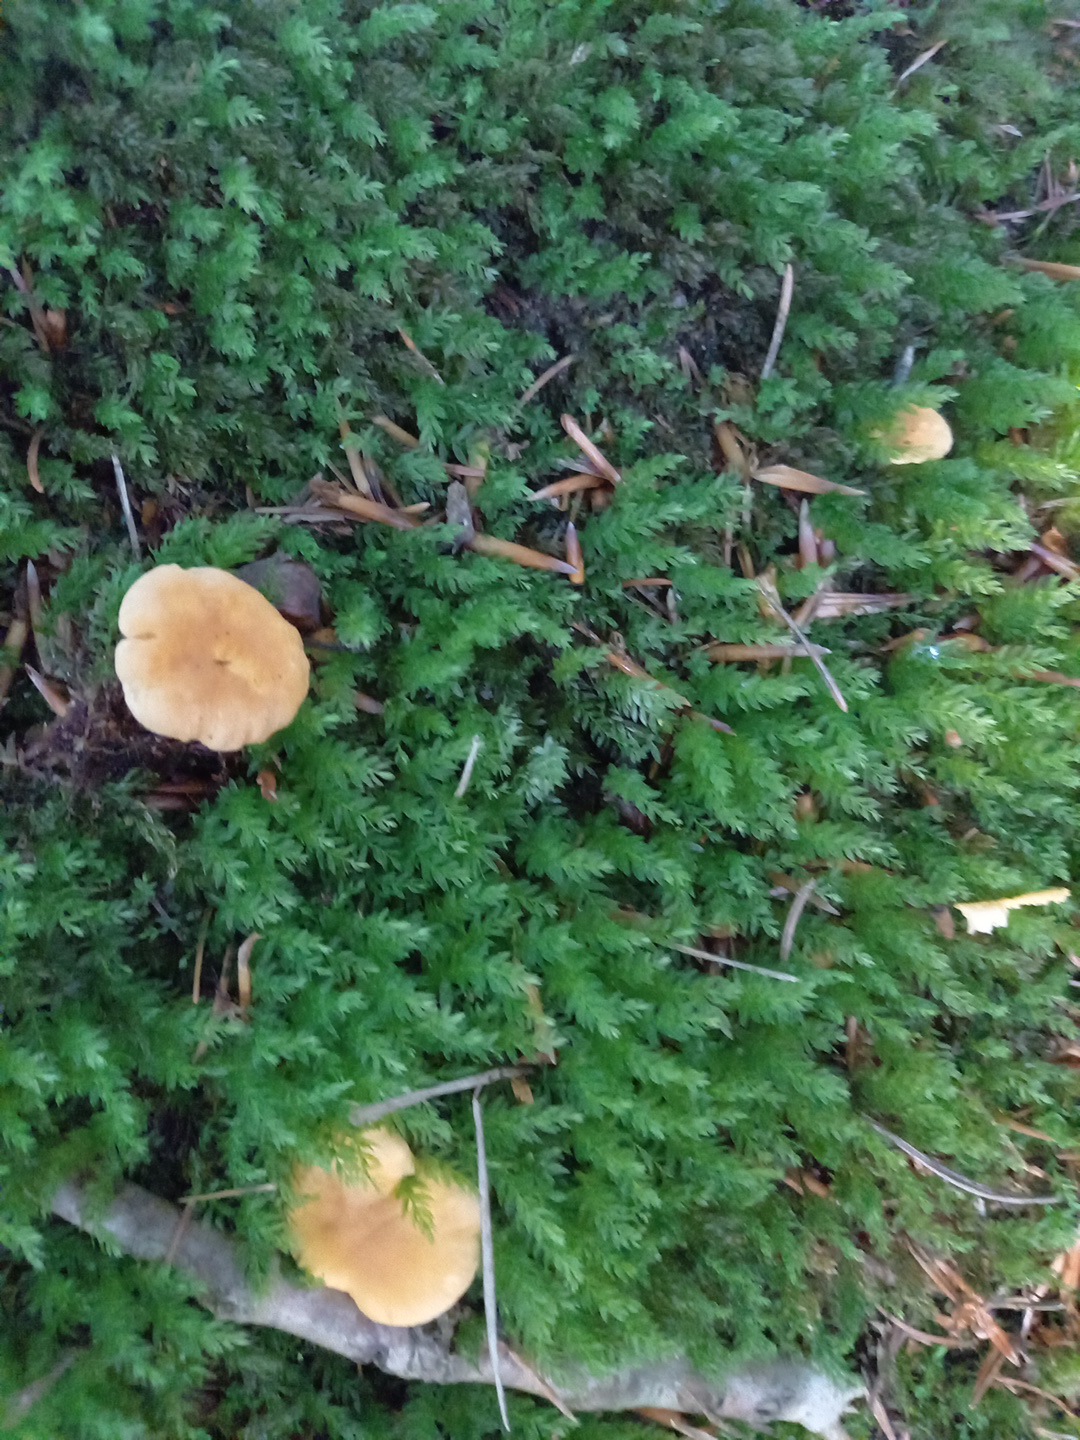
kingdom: Fungi
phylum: Basidiomycota
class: Agaricomycetes
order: Cantharellales
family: Hydnaceae
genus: Cantharellus
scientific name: Cantharellus pallens
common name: bleg kantarel
